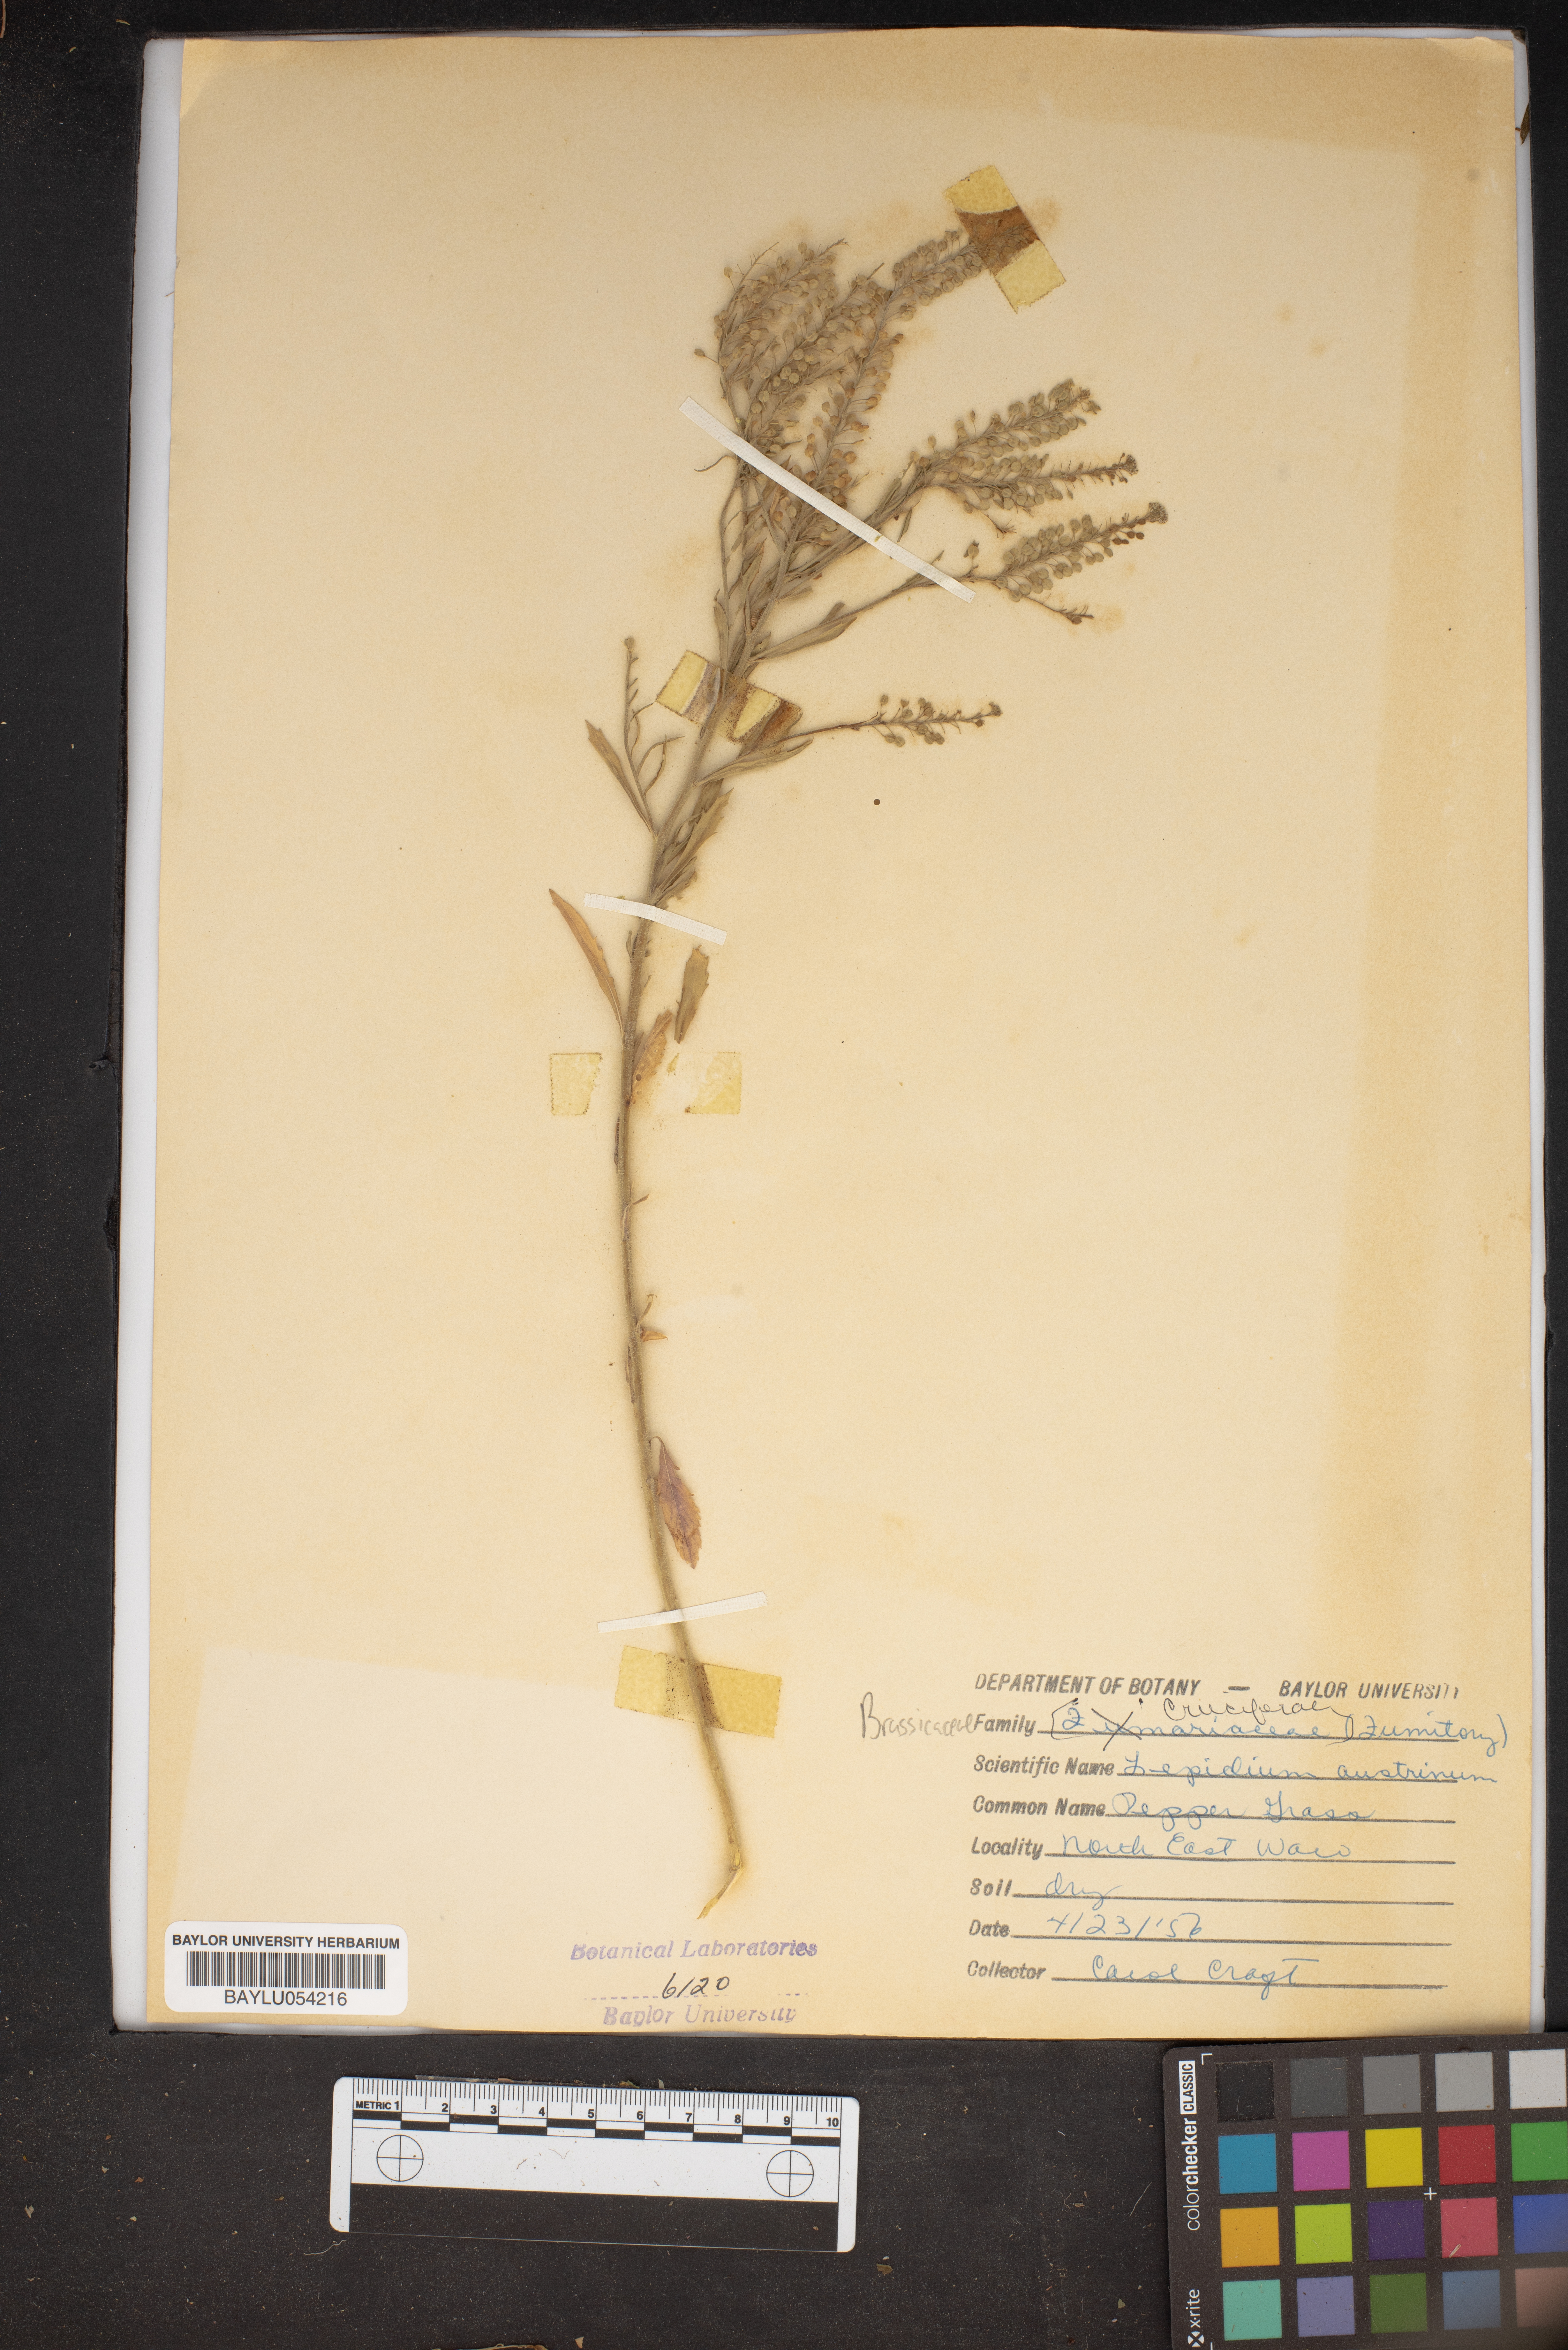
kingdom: Plantae
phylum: Tracheophyta
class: Magnoliopsida
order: Brassicales
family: Brassicaceae
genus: Lepidium
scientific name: Lepidium austrinum
